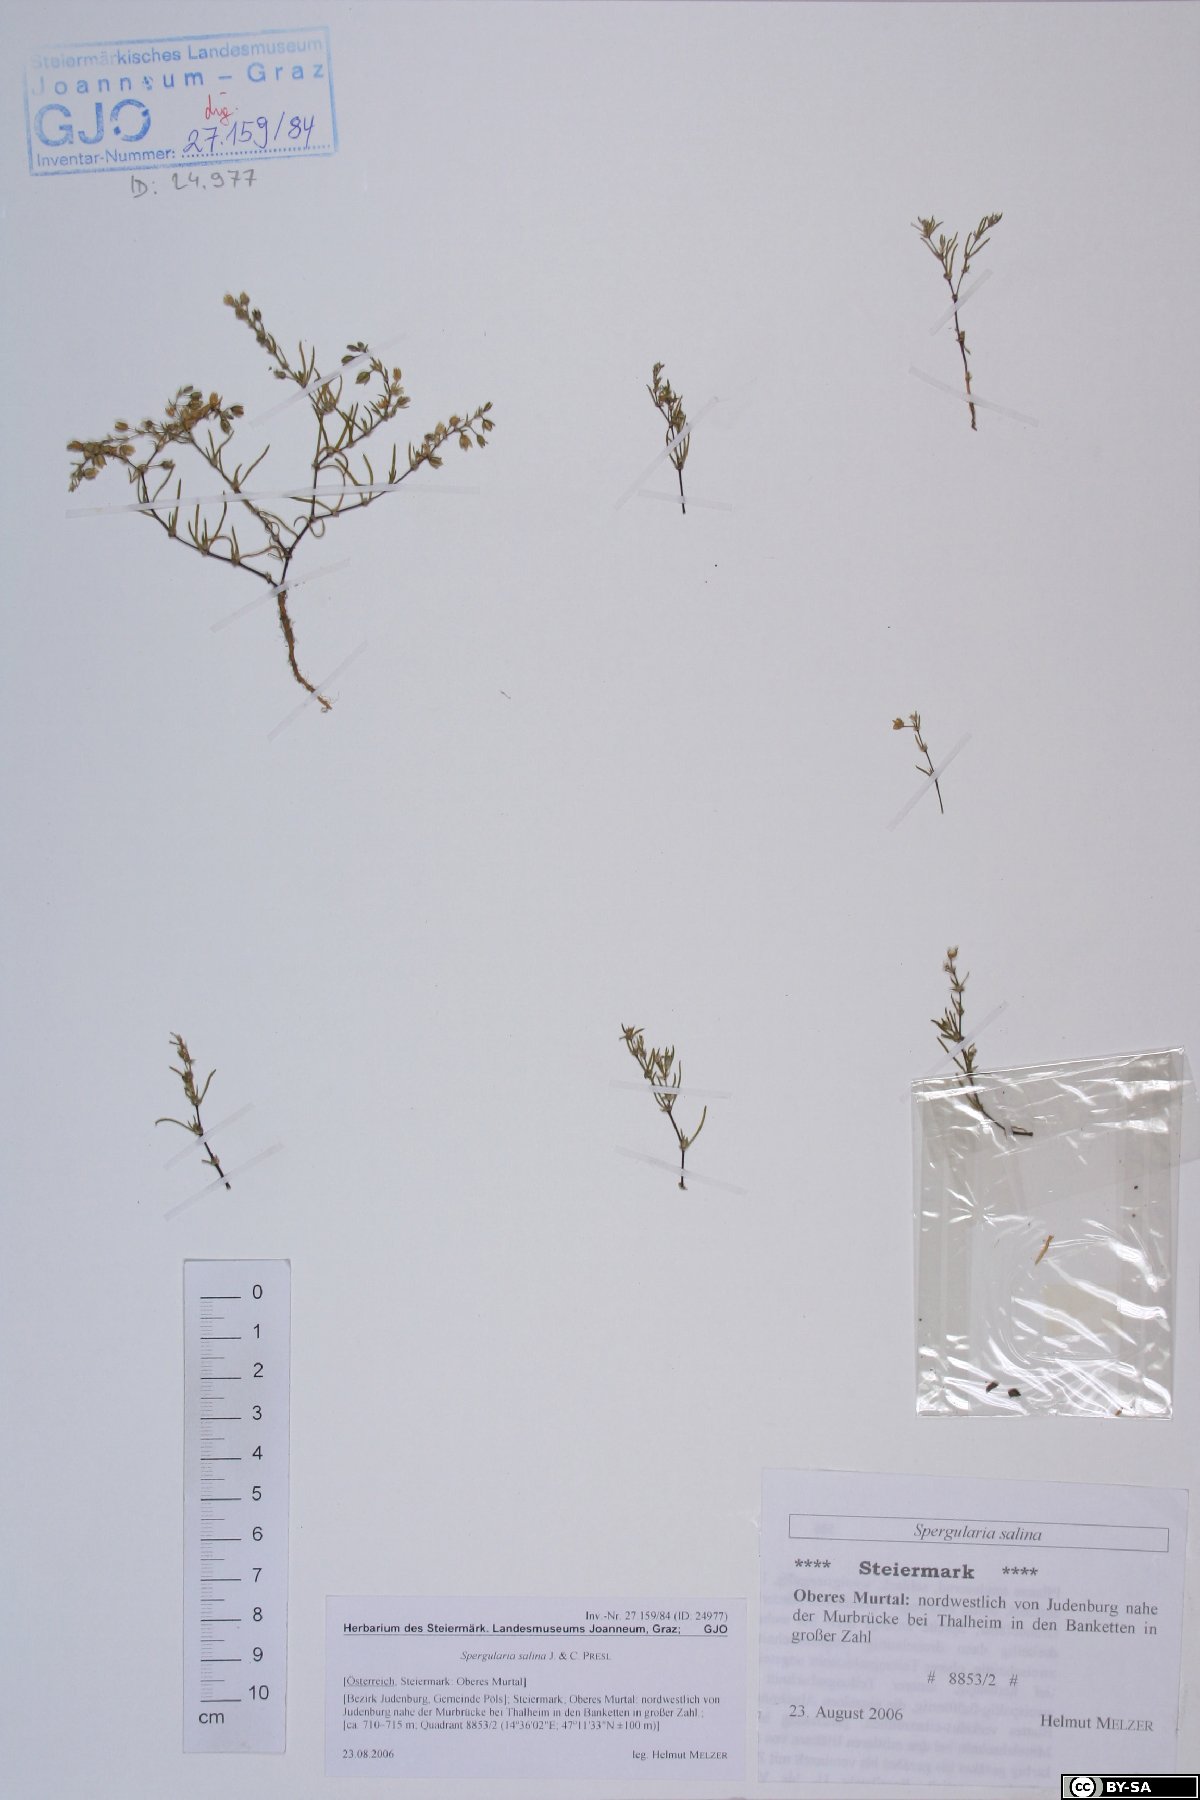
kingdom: Plantae
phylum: Tracheophyta
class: Magnoliopsida
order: Caryophyllales
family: Caryophyllaceae
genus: Spergularia
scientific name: Spergularia marina
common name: Lesser sea-spurrey
